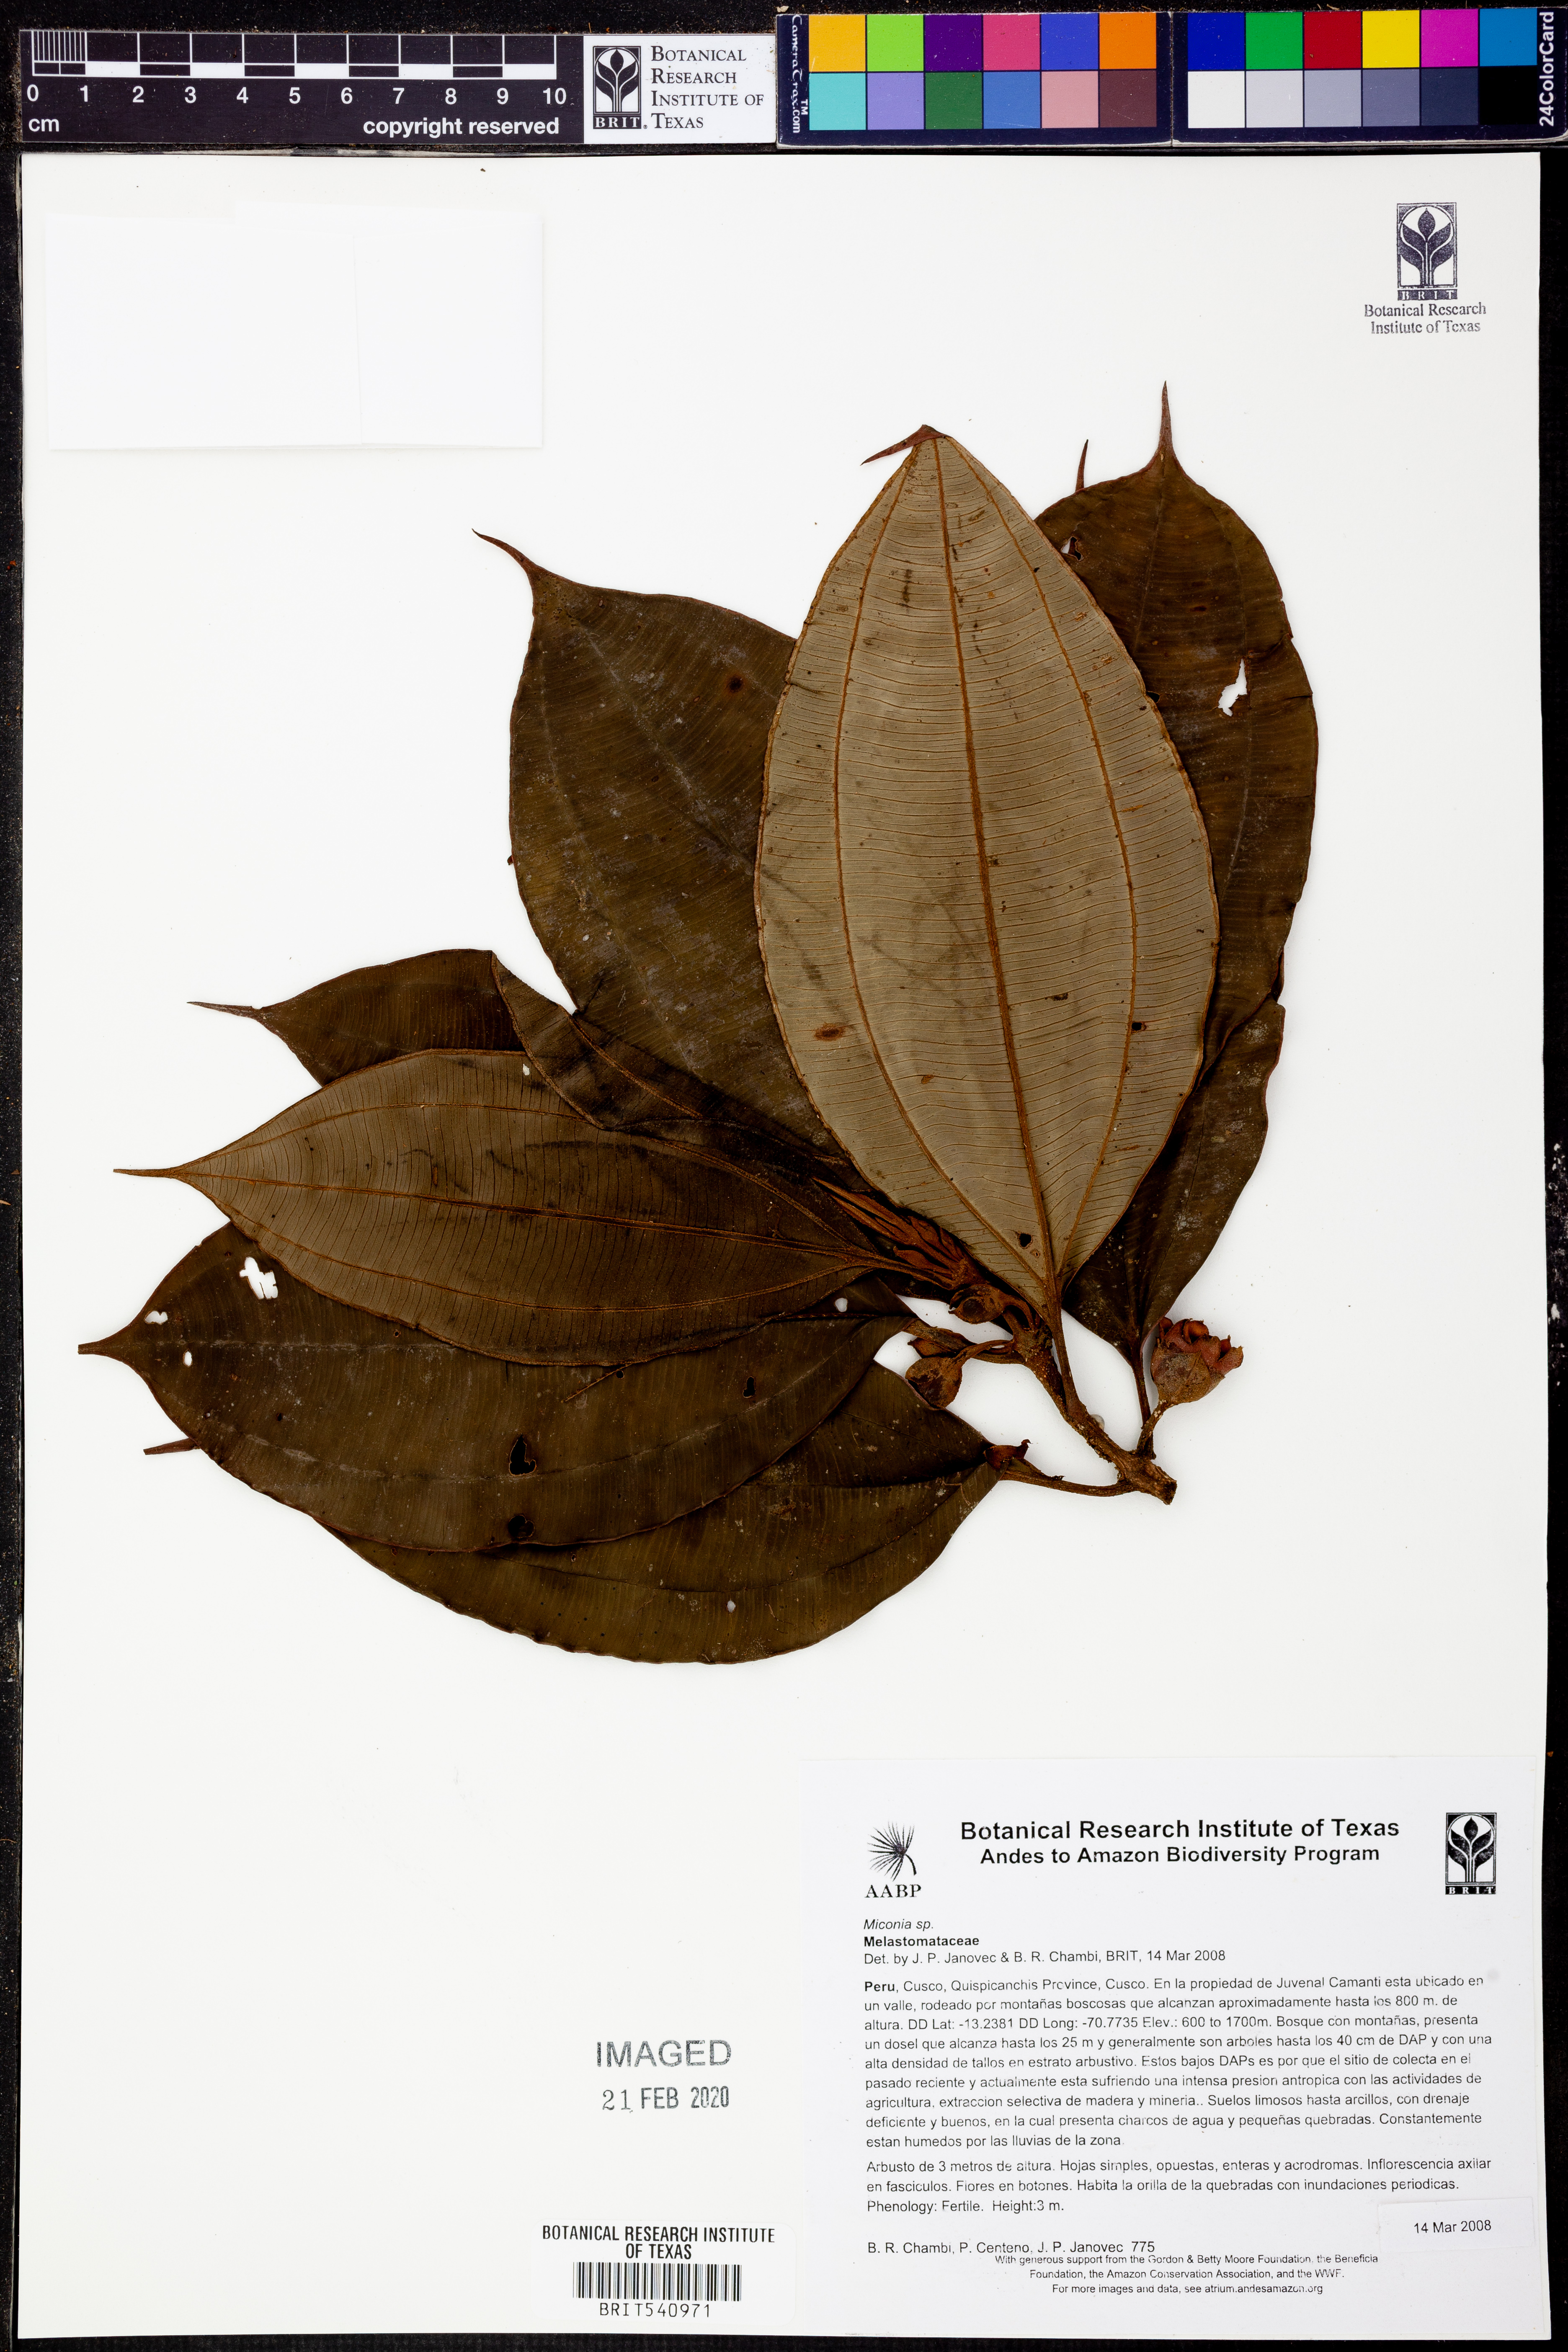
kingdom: Plantae
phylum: Tracheophyta
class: Magnoliopsida
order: Myrtales
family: Melastomataceae
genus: Miconia
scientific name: Miconia
